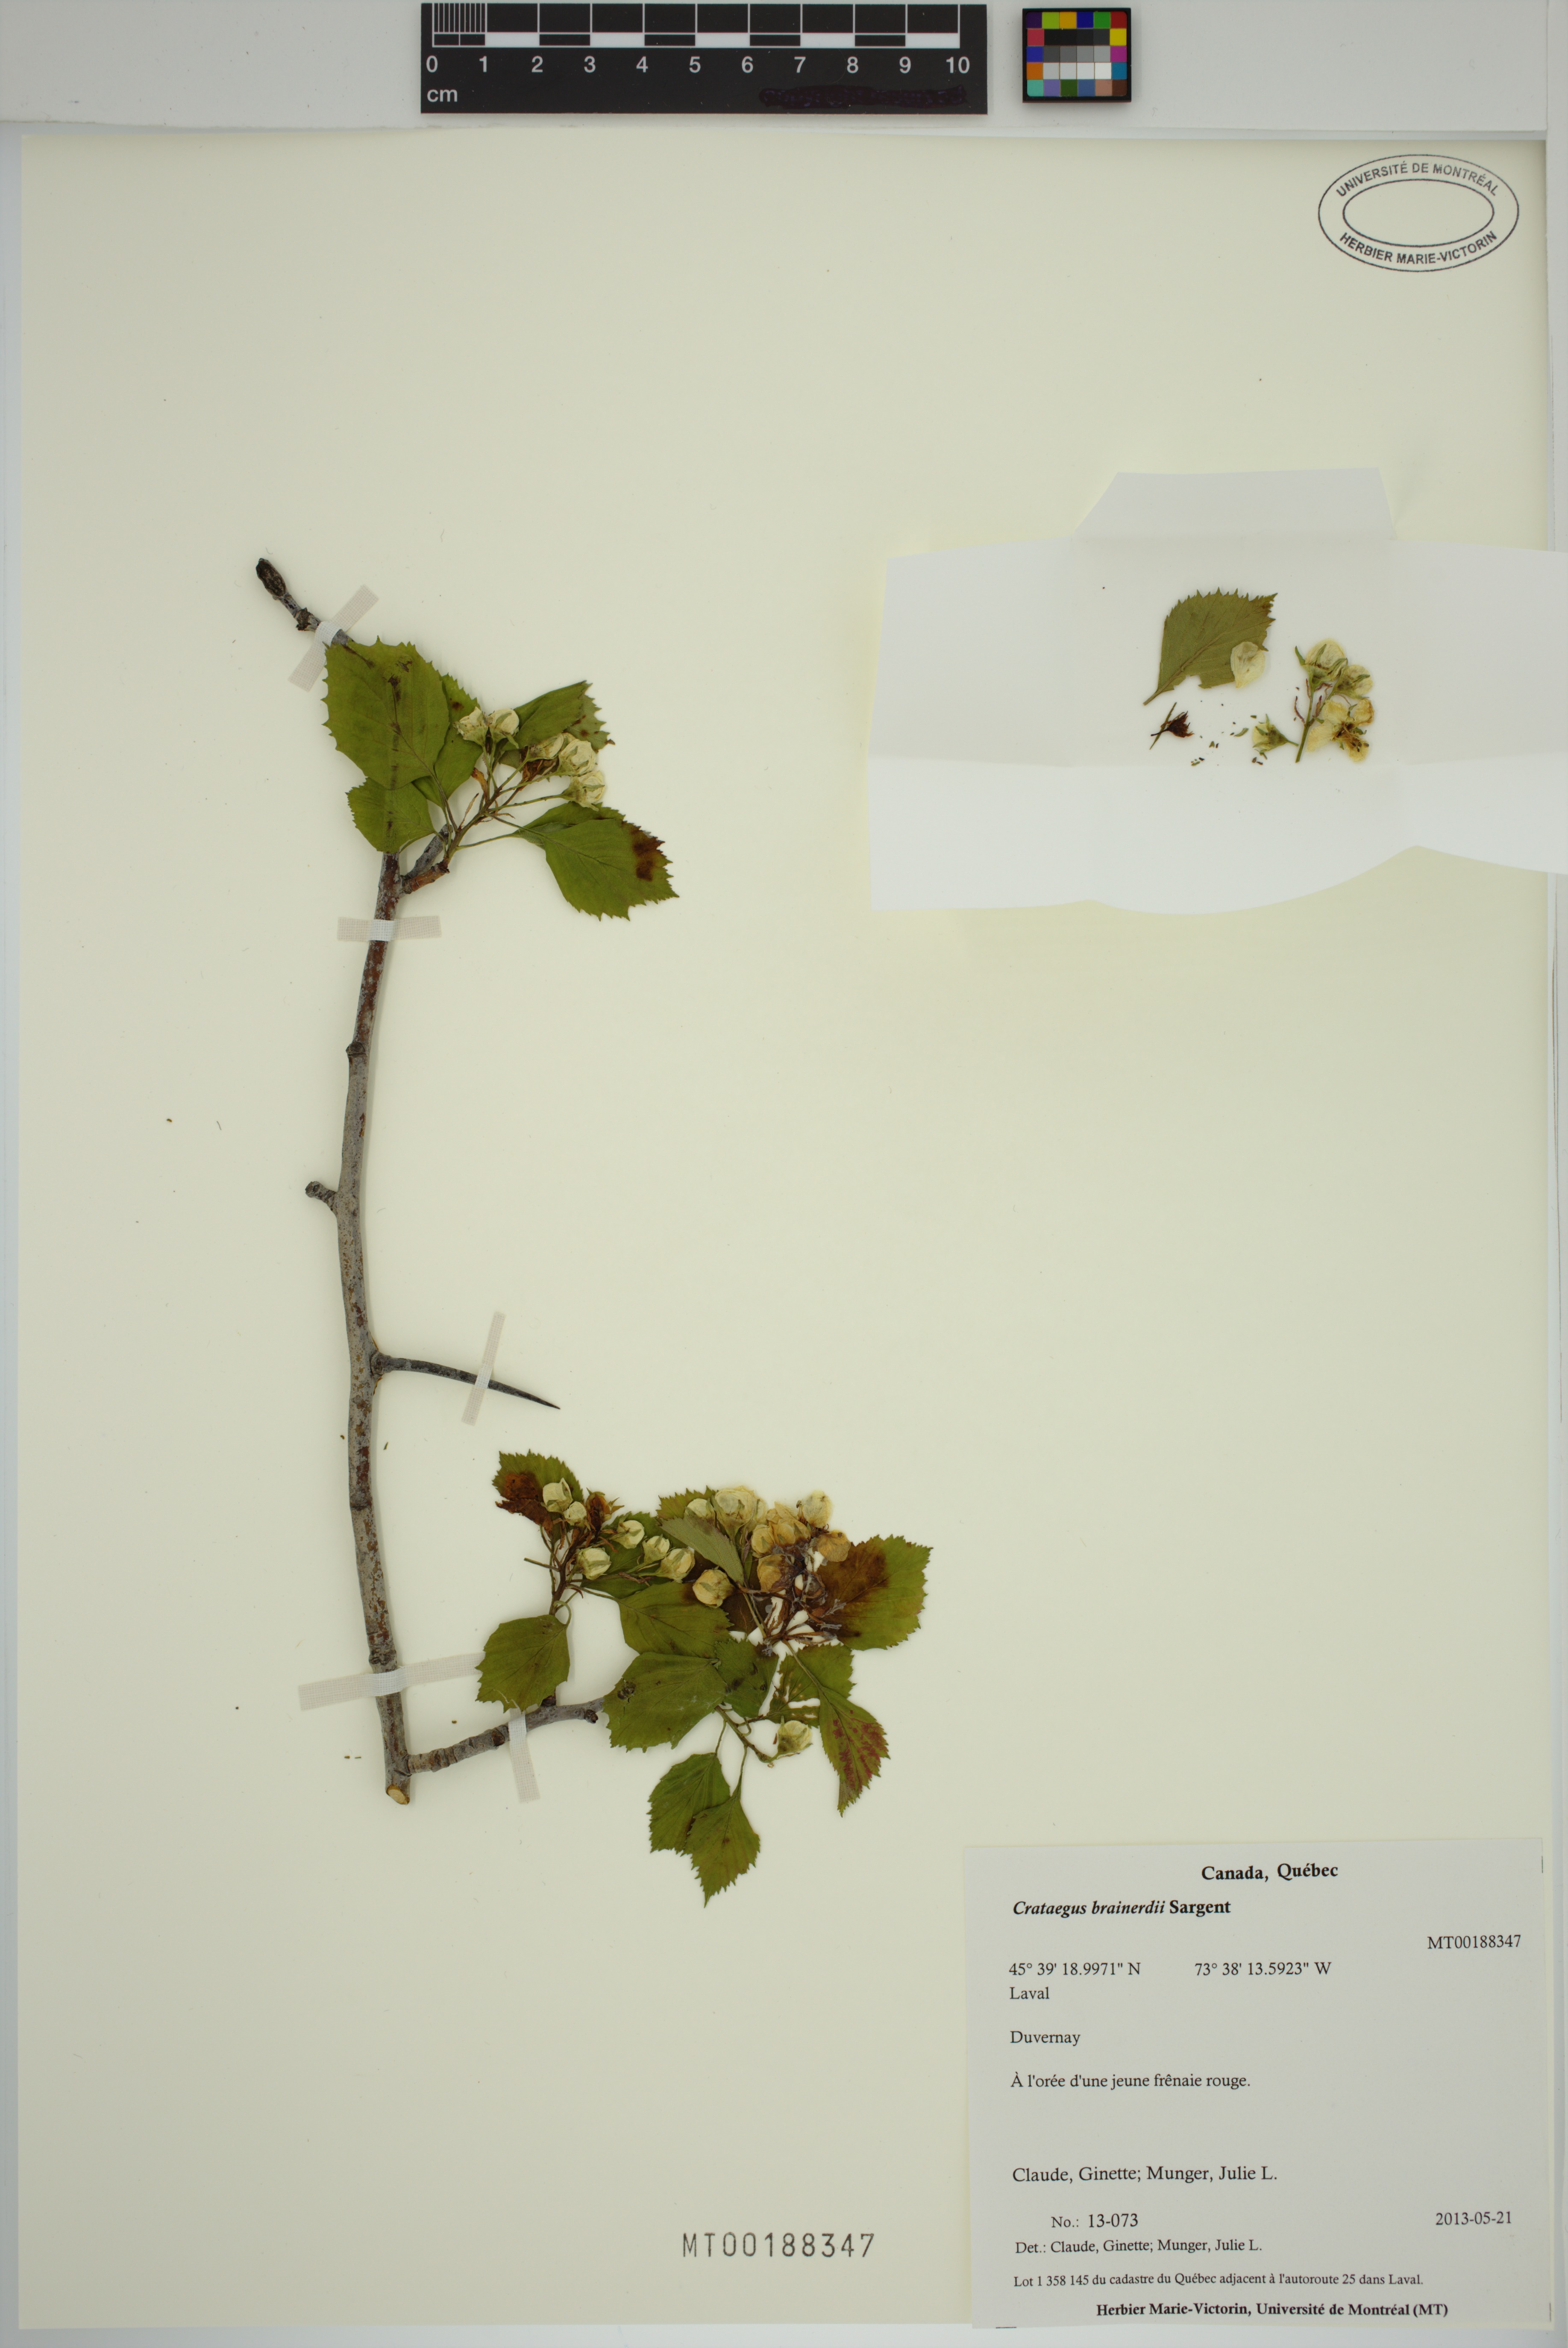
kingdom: Plantae
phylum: Tracheophyta
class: Magnoliopsida
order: Rosales
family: Rosaceae
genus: Crataegus
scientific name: Crataegus suborbiculata
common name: Caughnawaga hawthorn
